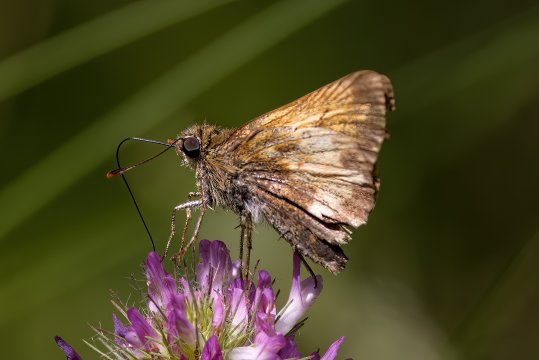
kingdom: Animalia
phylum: Arthropoda
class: Insecta
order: Lepidoptera
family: Hesperiidae
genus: Lon
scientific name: Lon hobomok
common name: Hobomok Skipper
